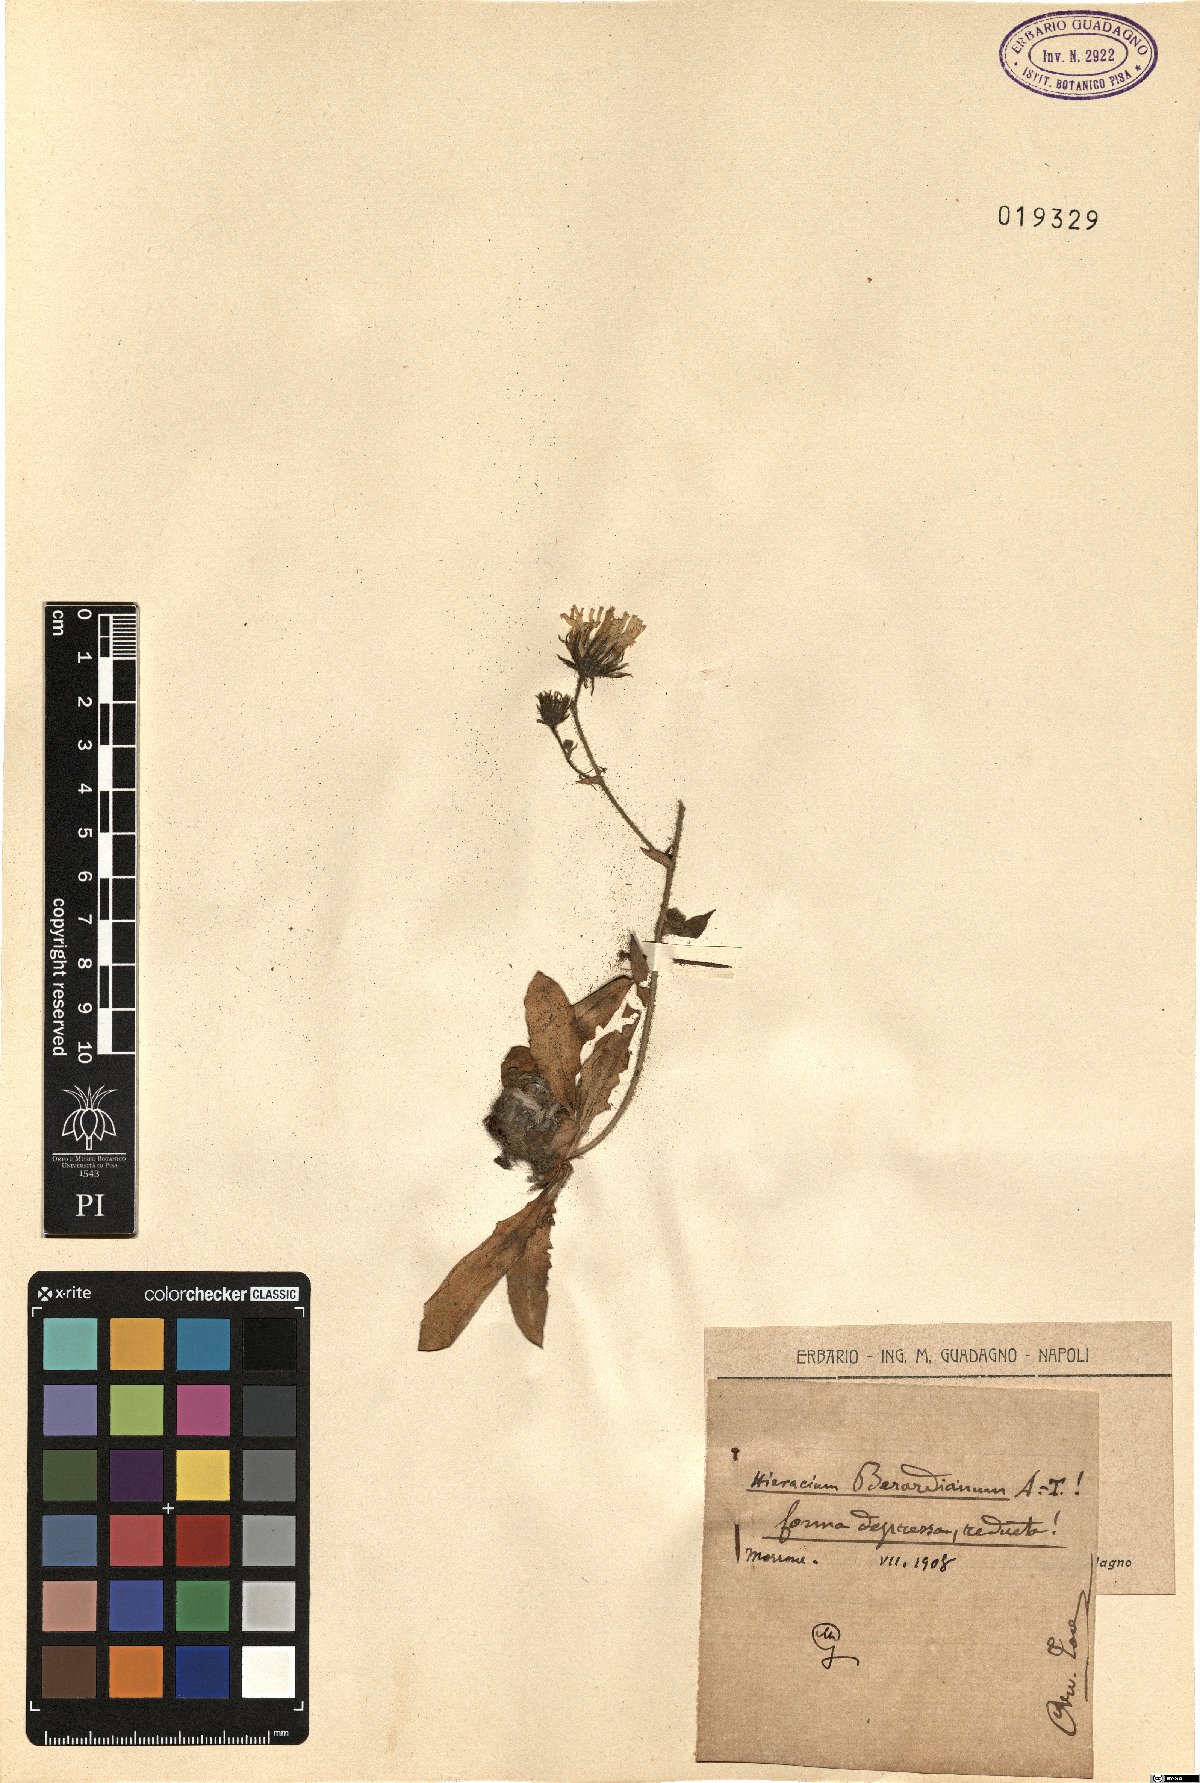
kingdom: Plantae
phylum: Tracheophyta
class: Magnoliopsida
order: Asterales
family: Asteraceae
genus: Hieracium
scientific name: Hieracium amplexicaule
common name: Sticky hawkweed
